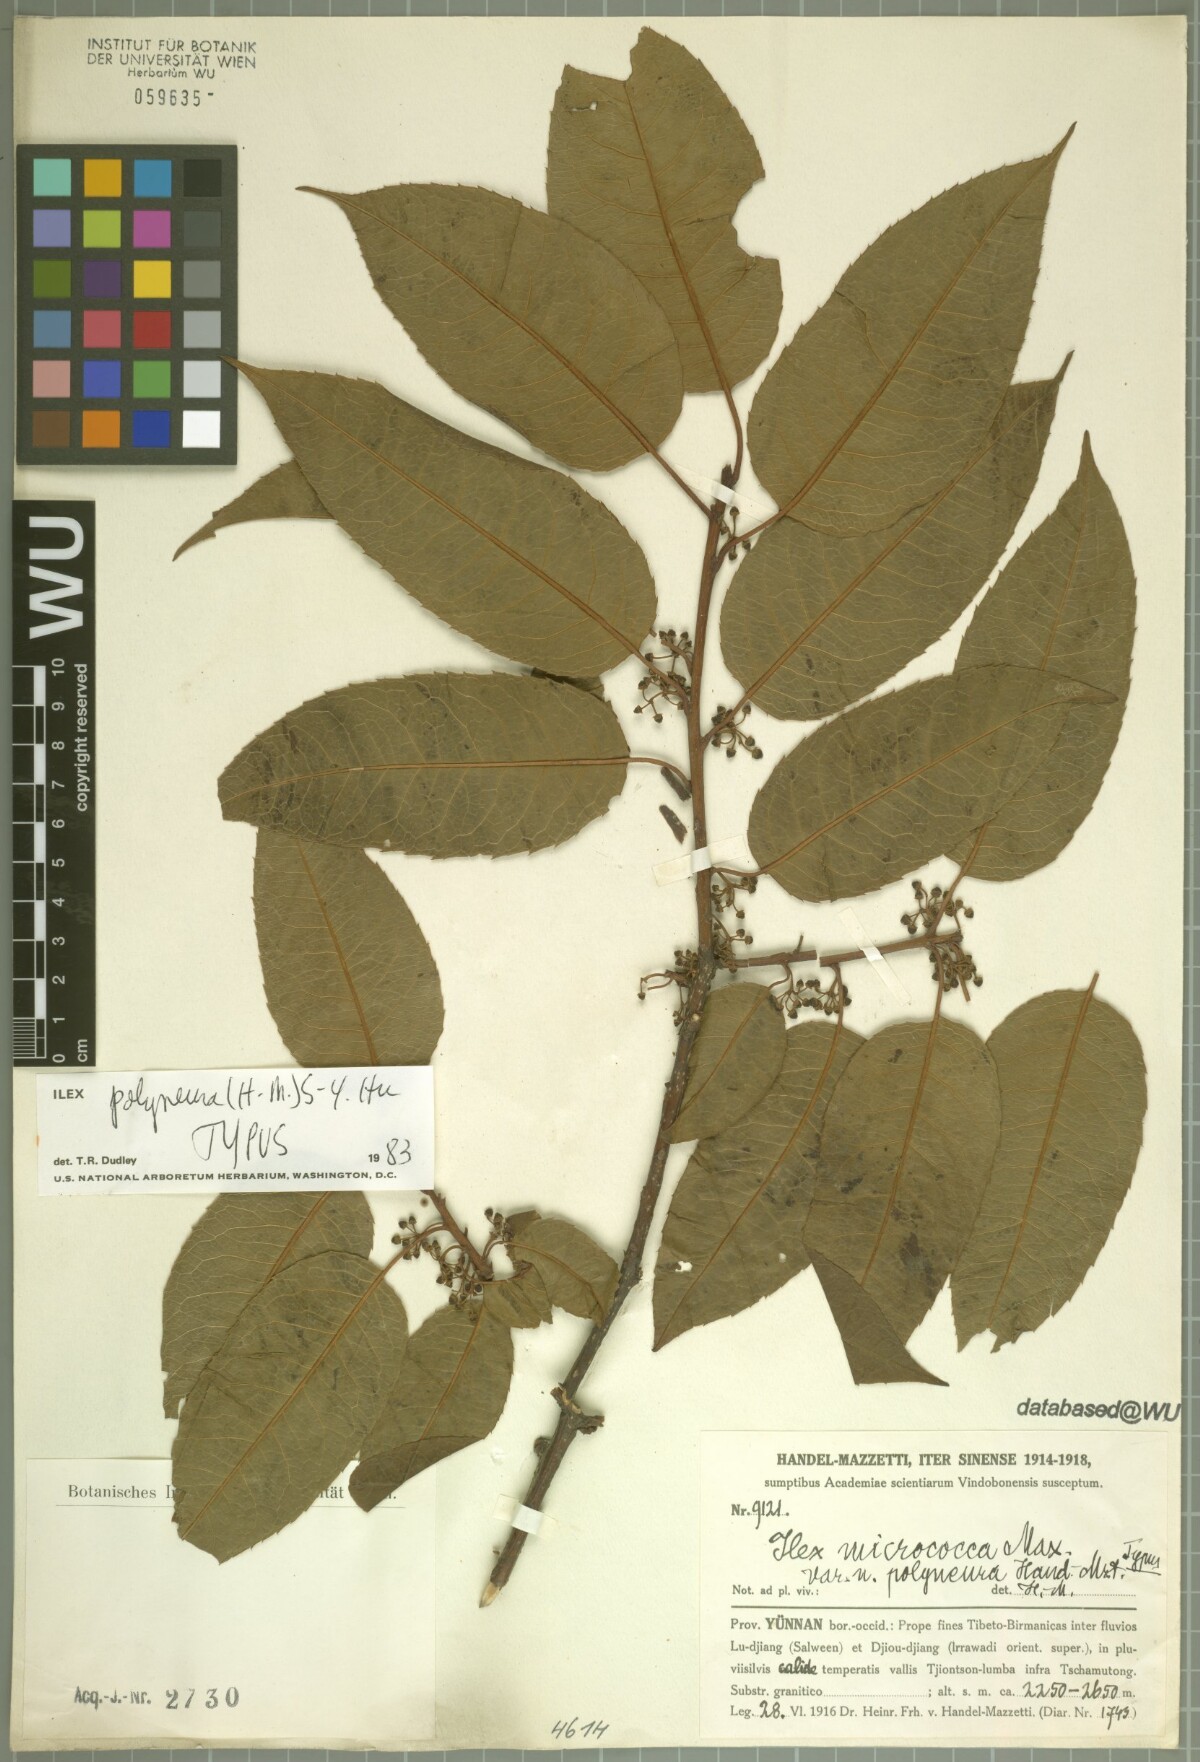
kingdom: Plantae
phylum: Tracheophyta
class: Magnoliopsida
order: Aquifoliales
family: Aquifoliaceae
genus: Ilex
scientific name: Ilex micrococca
